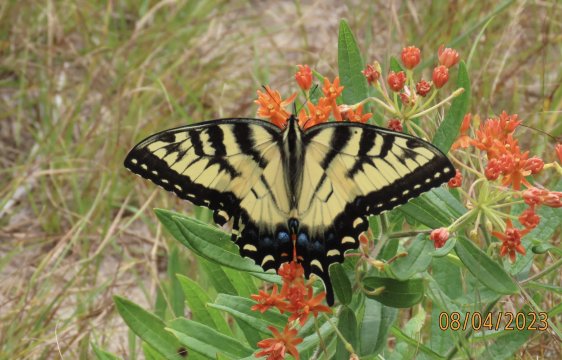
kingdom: Animalia
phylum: Arthropoda
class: Insecta
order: Lepidoptera
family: Papilionidae
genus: Pterourus
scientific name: Pterourus glaucus
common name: Eastern Tiger Swallowtail
